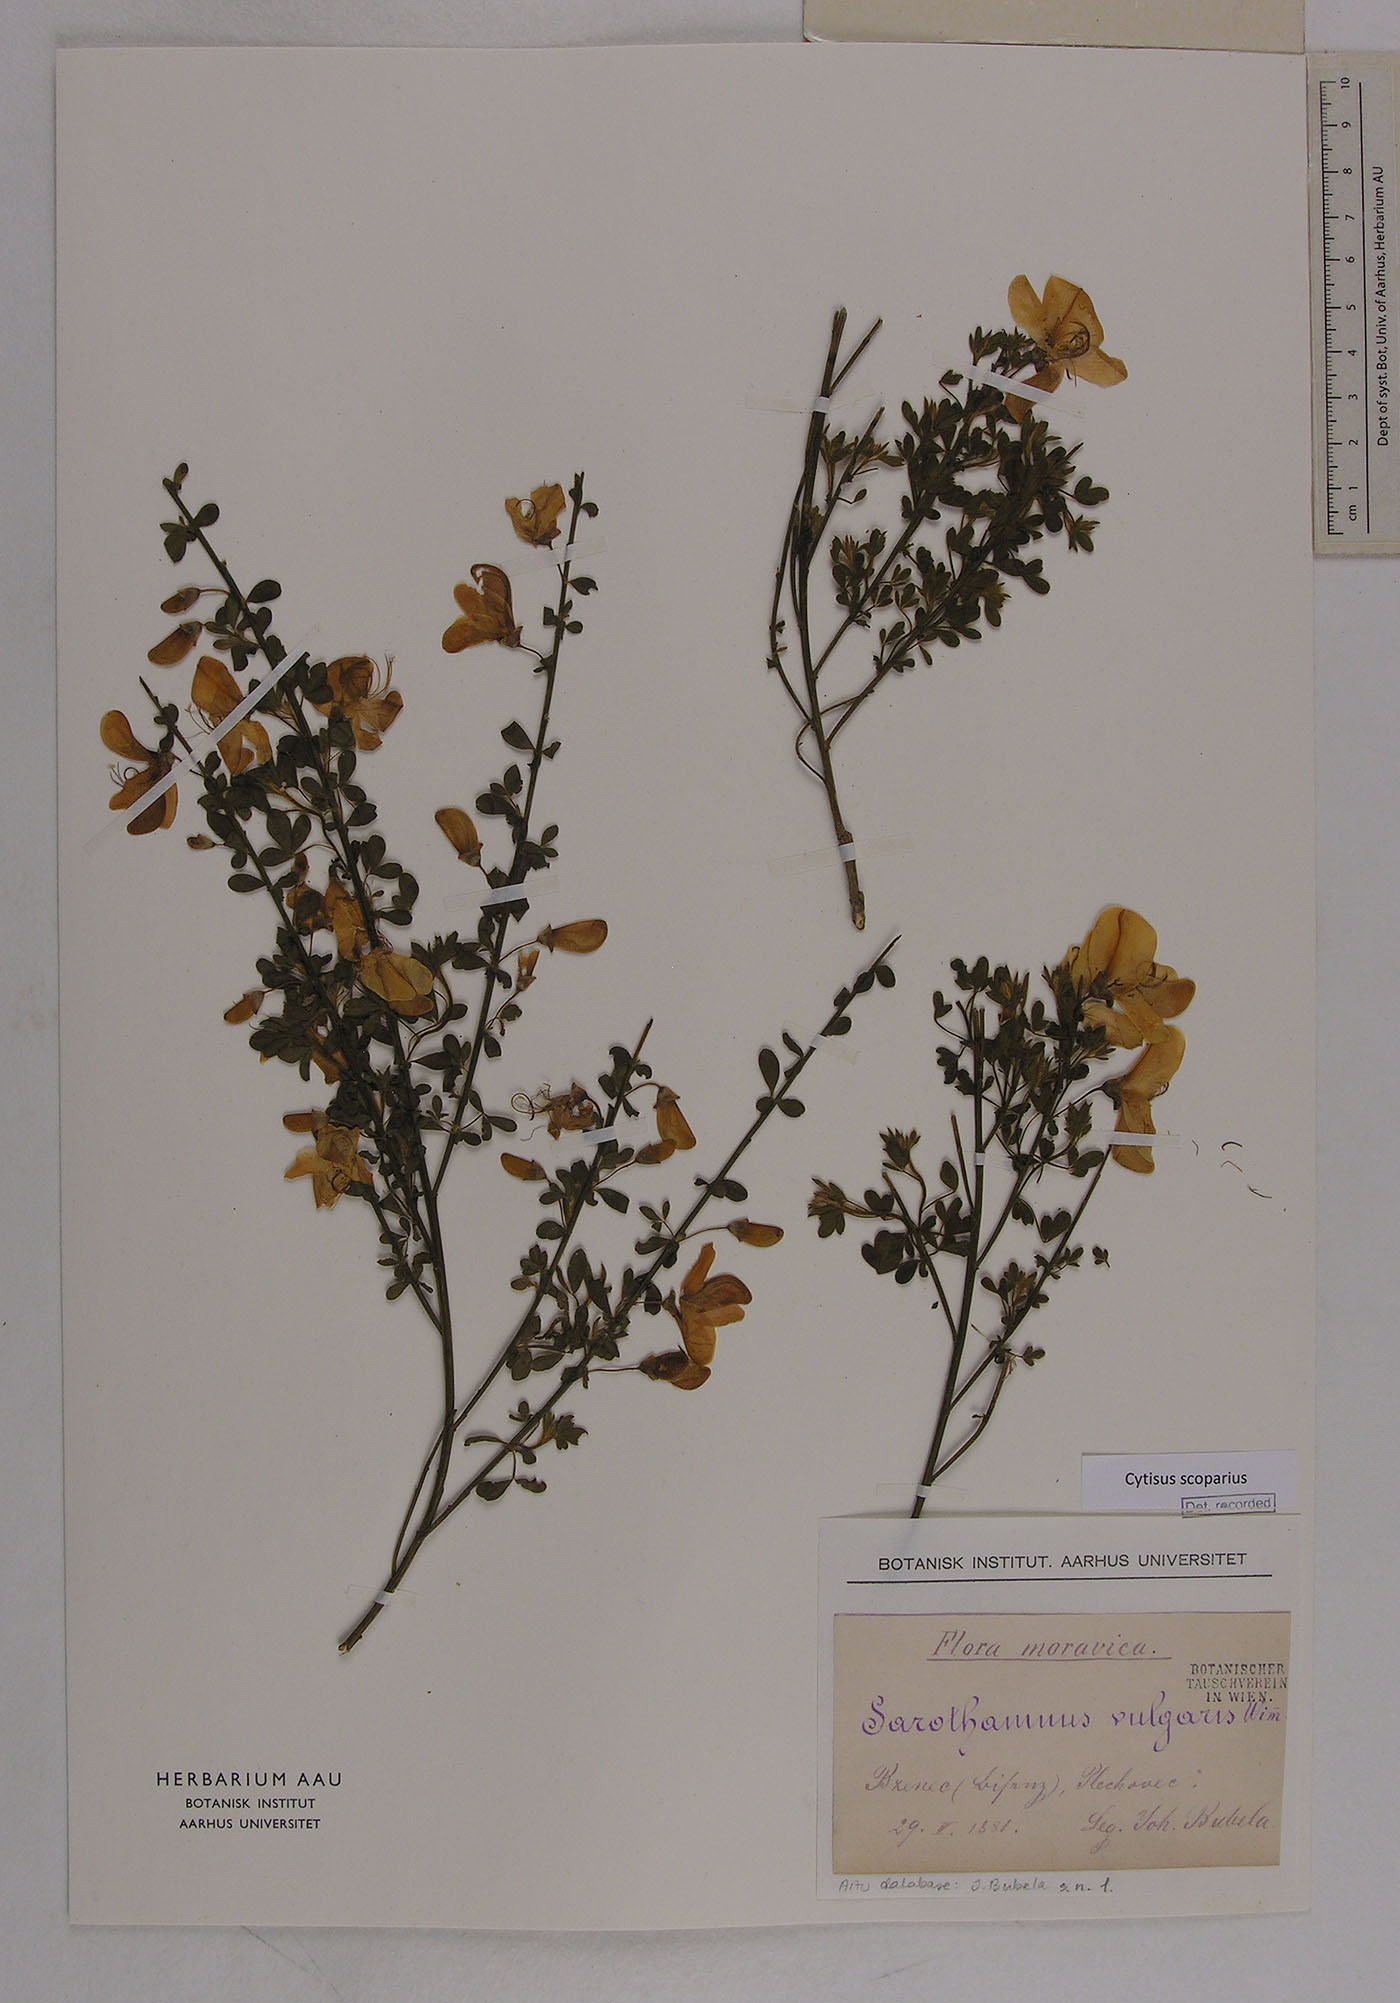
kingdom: Plantae
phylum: Tracheophyta
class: Magnoliopsida
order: Fabales
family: Fabaceae
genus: Cytisus
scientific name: Cytisus scoparius
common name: Scotch broom
